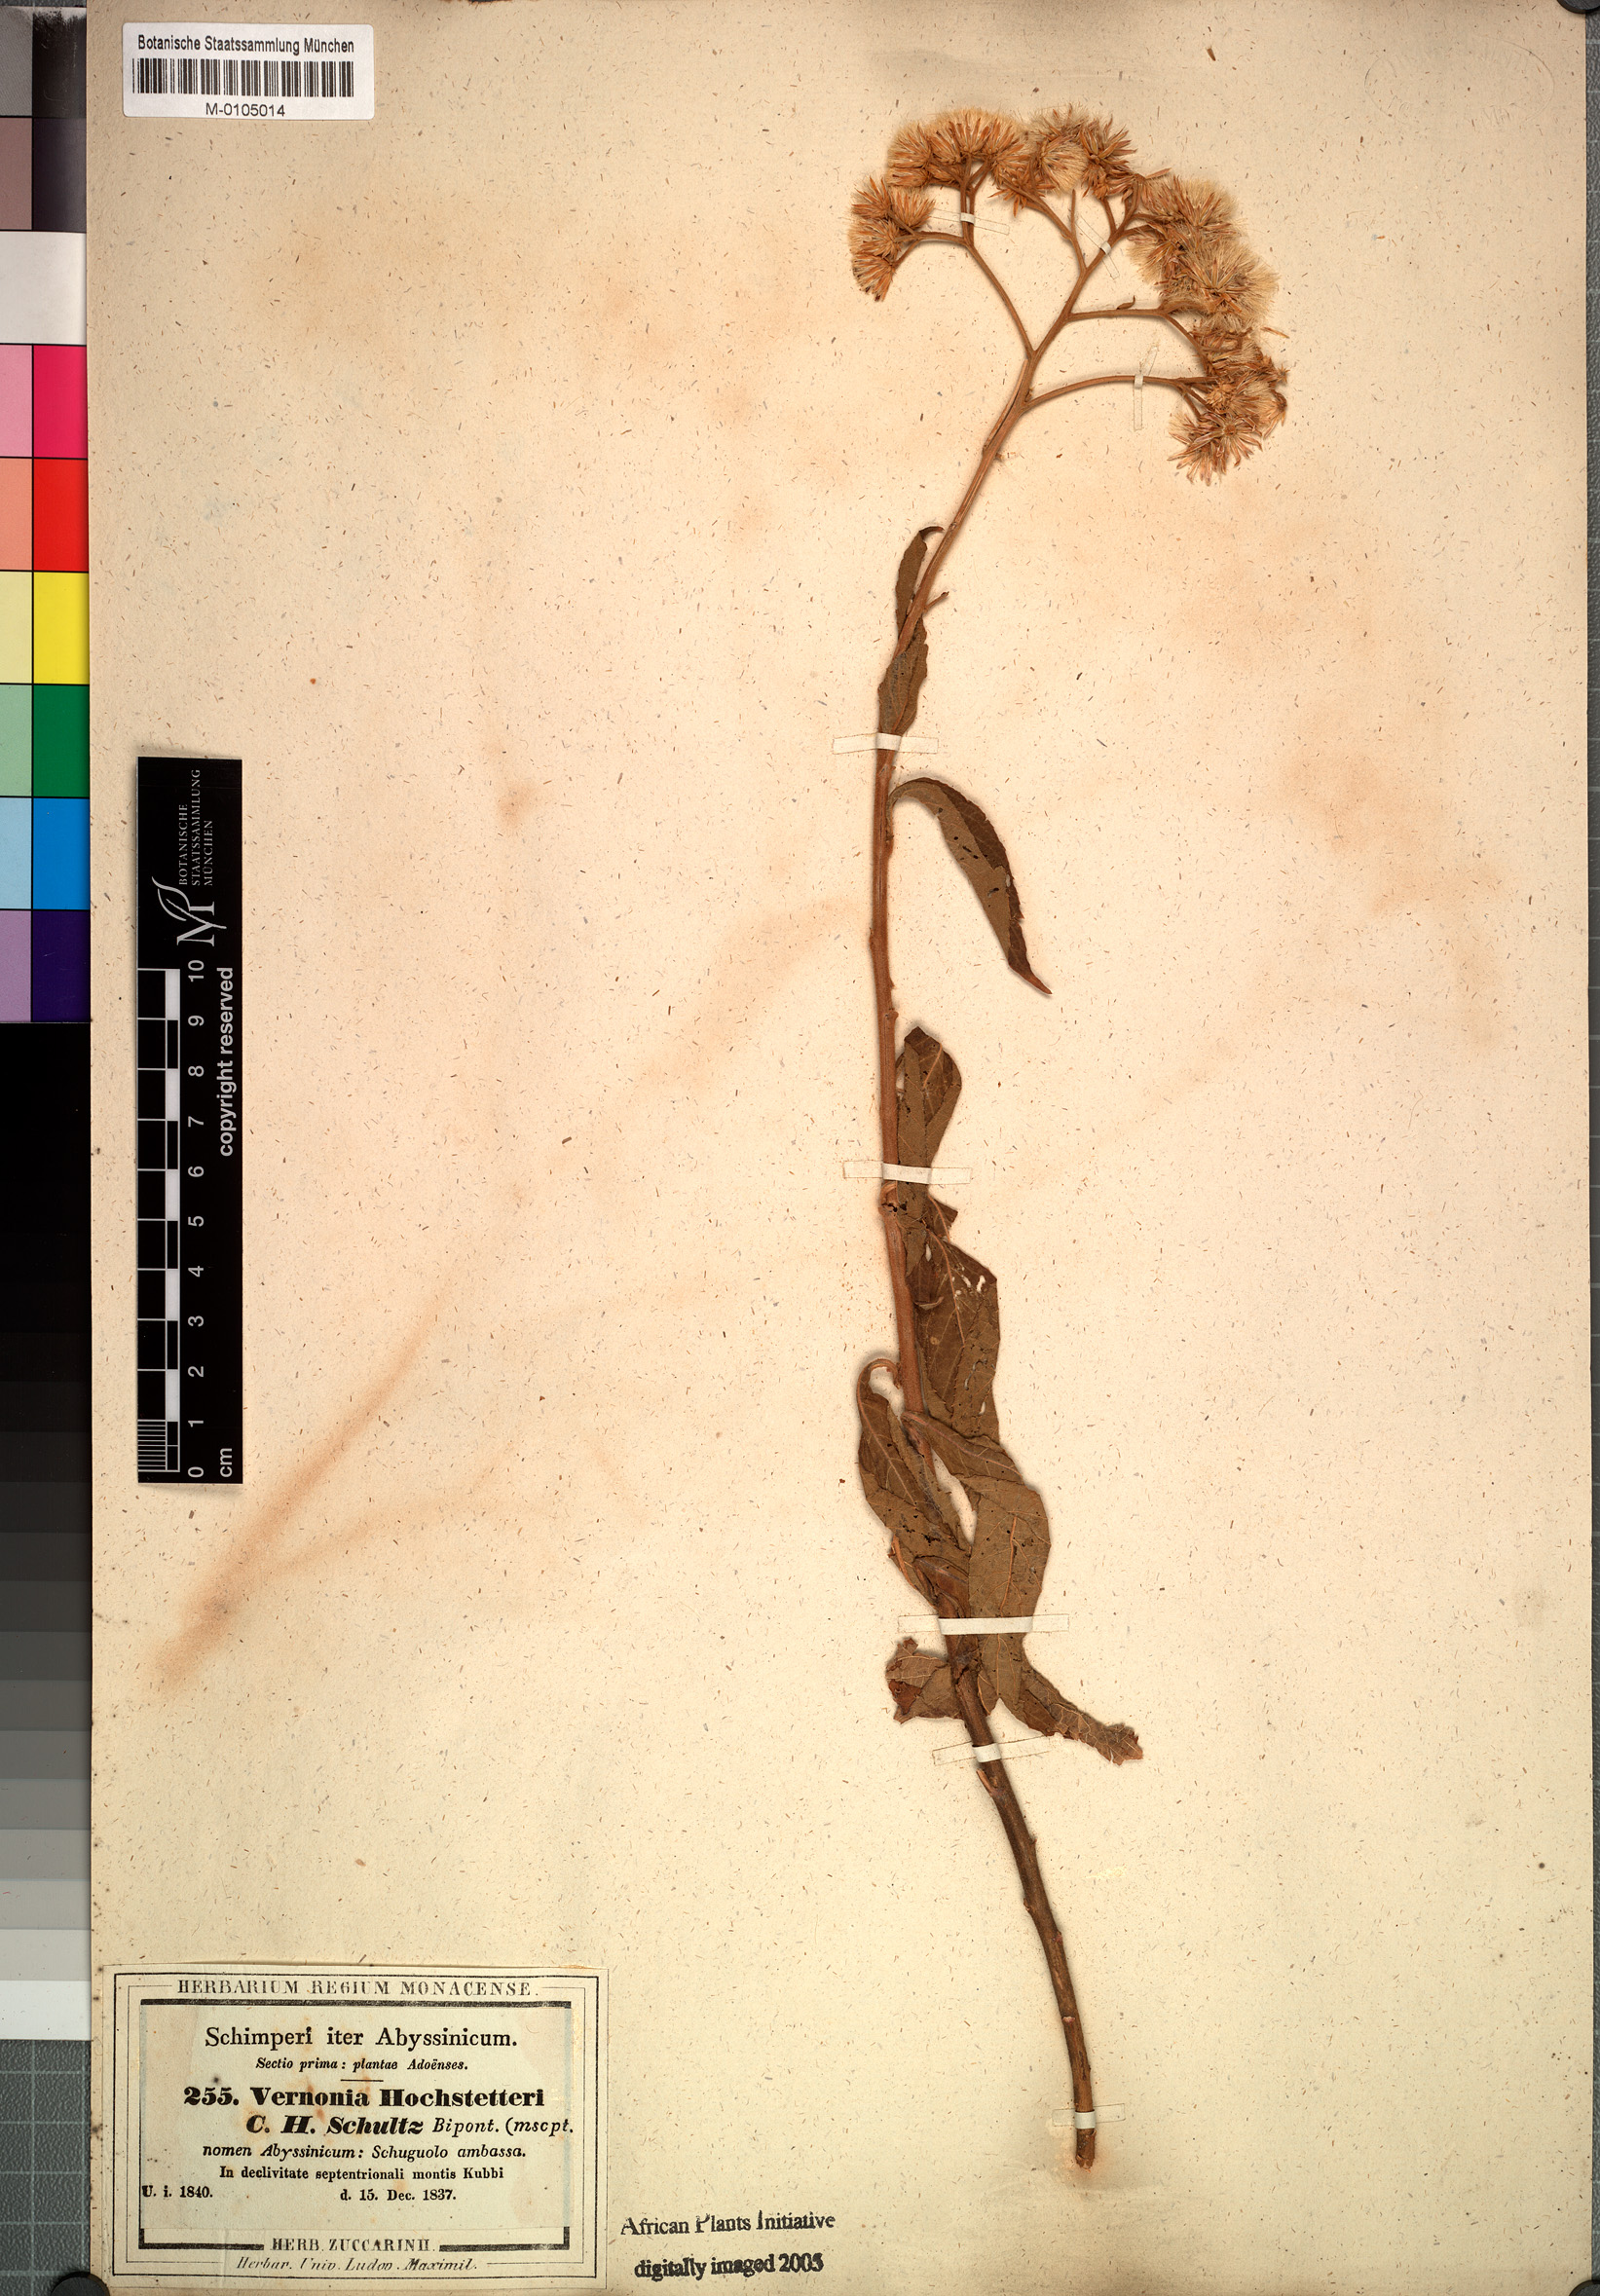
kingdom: Plantae
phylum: Tracheophyta
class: Magnoliopsida
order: Asterales
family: Asteraceae
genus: Vernonia
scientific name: Vernonia hochstetteri
